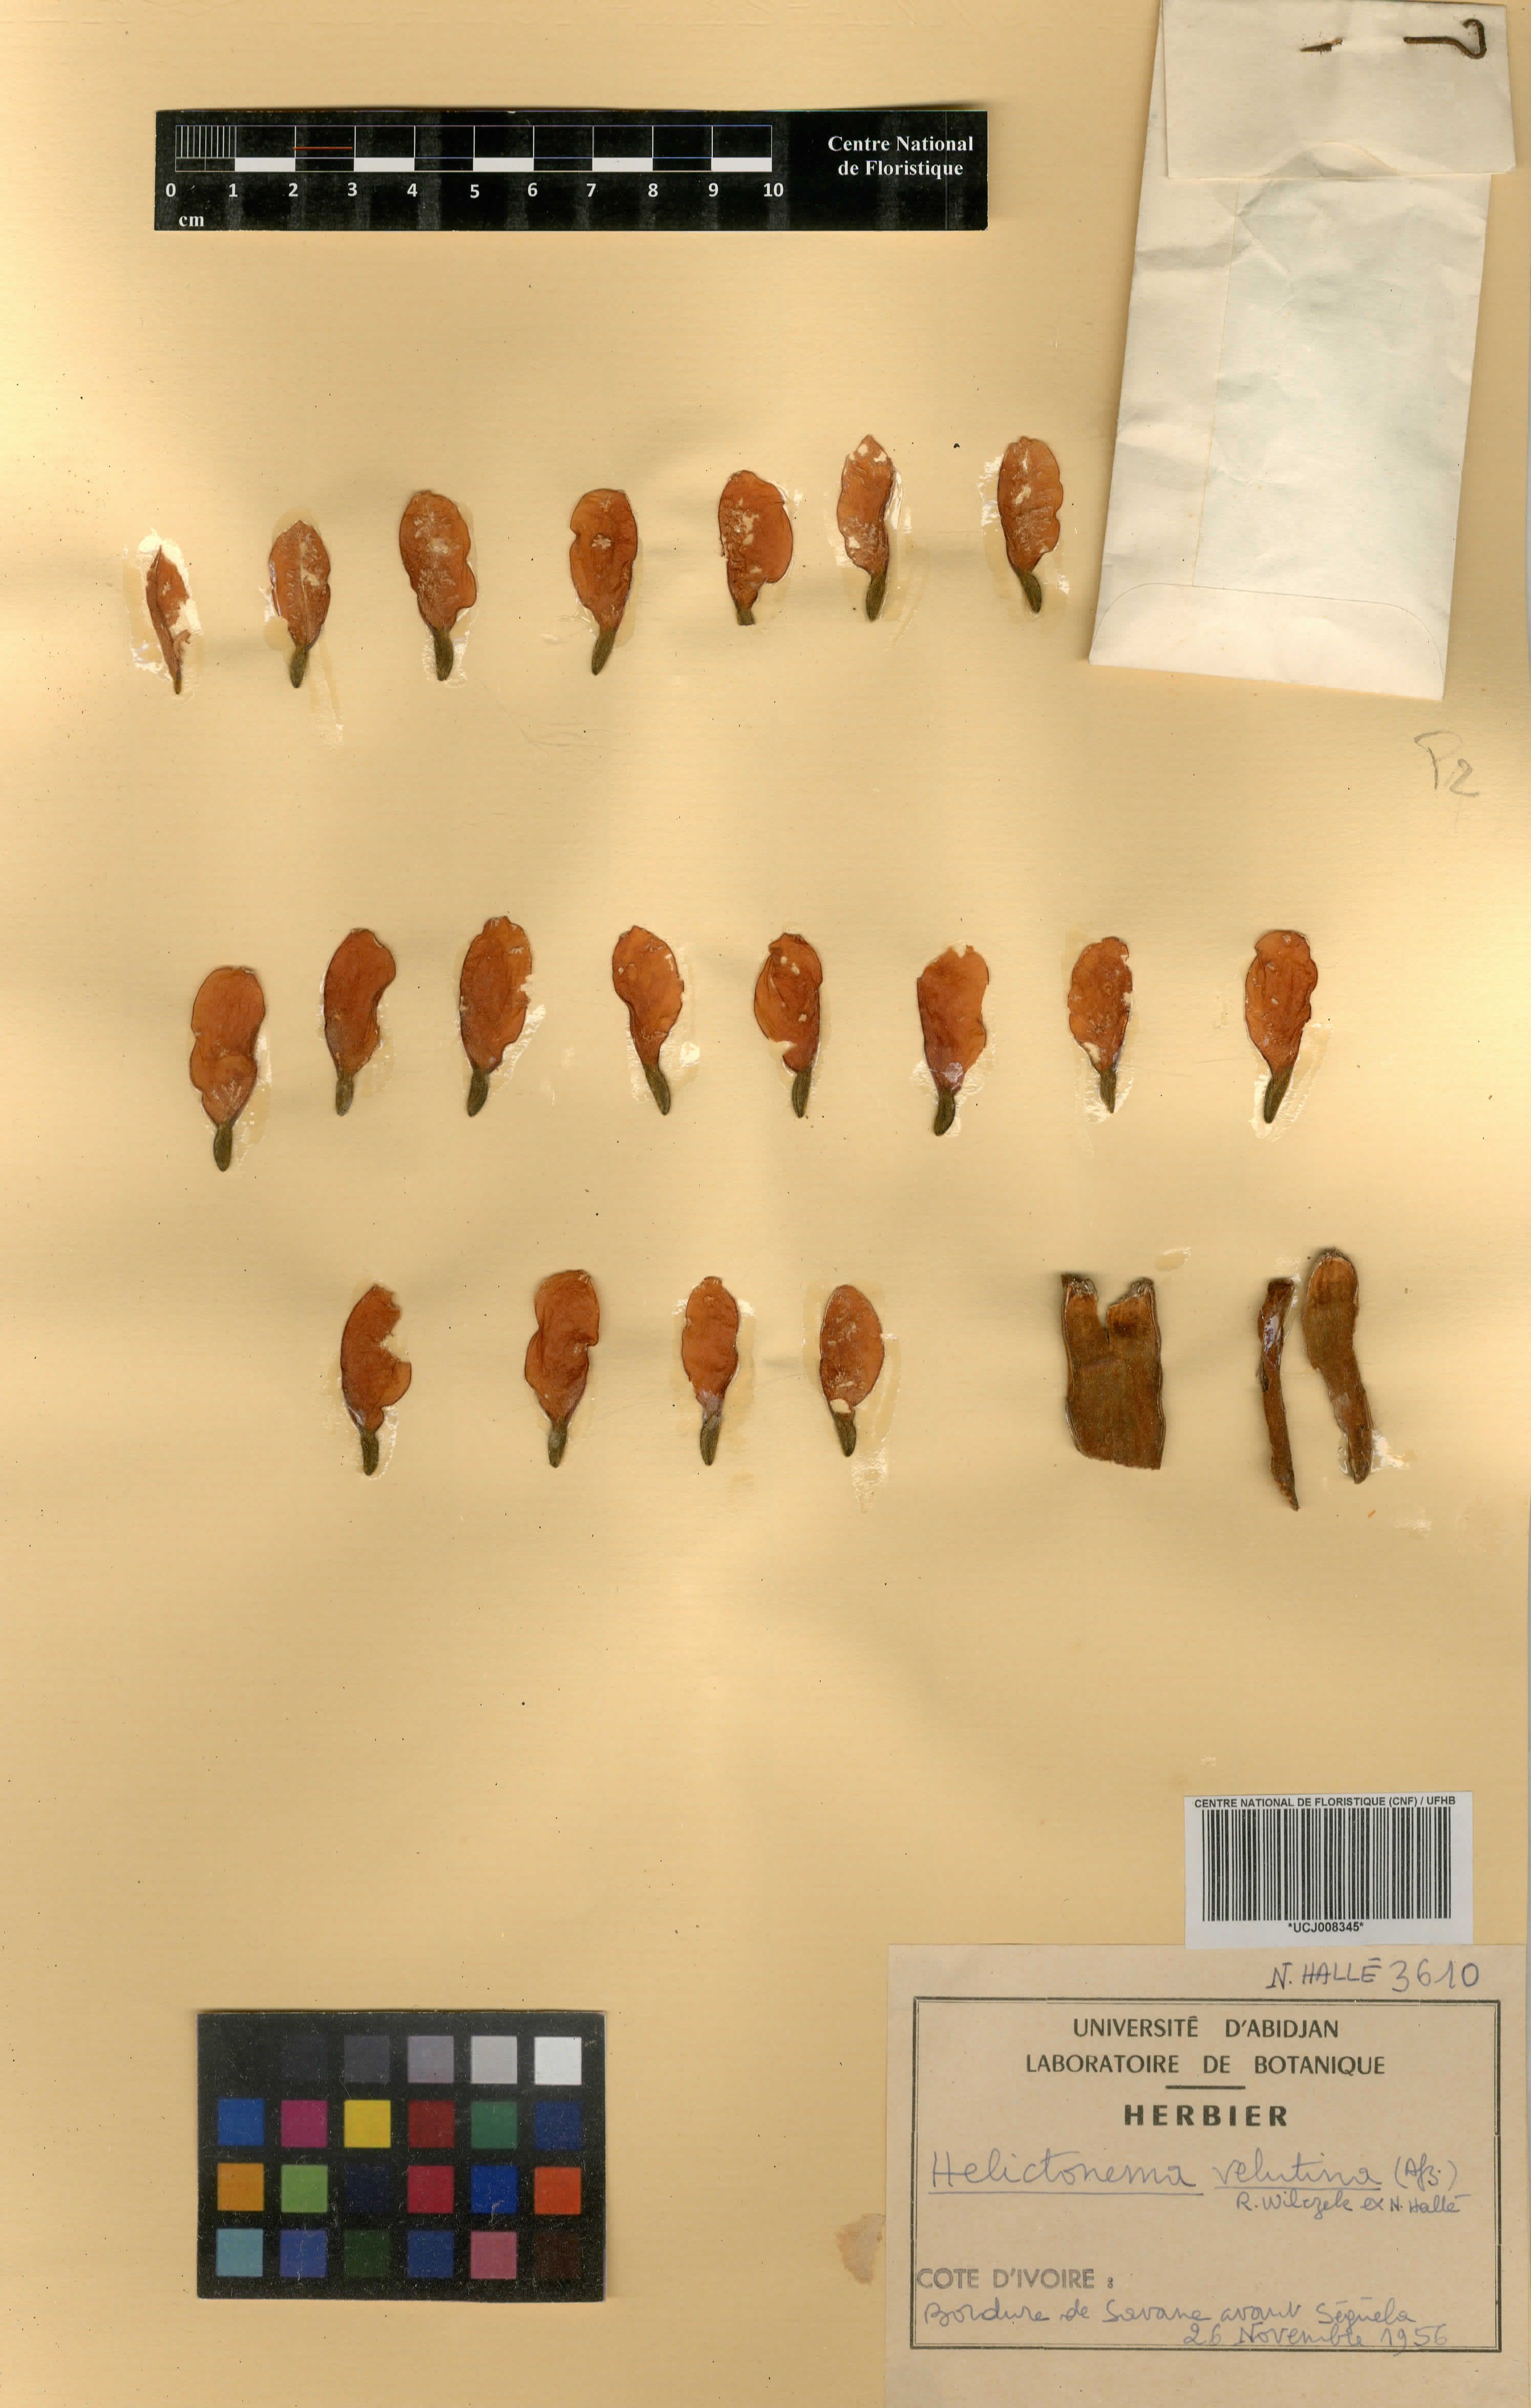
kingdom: Plantae
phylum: Tracheophyta
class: Magnoliopsida
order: Celastrales
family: Celastraceae
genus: Helictonema
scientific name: Helictonema velutinum
